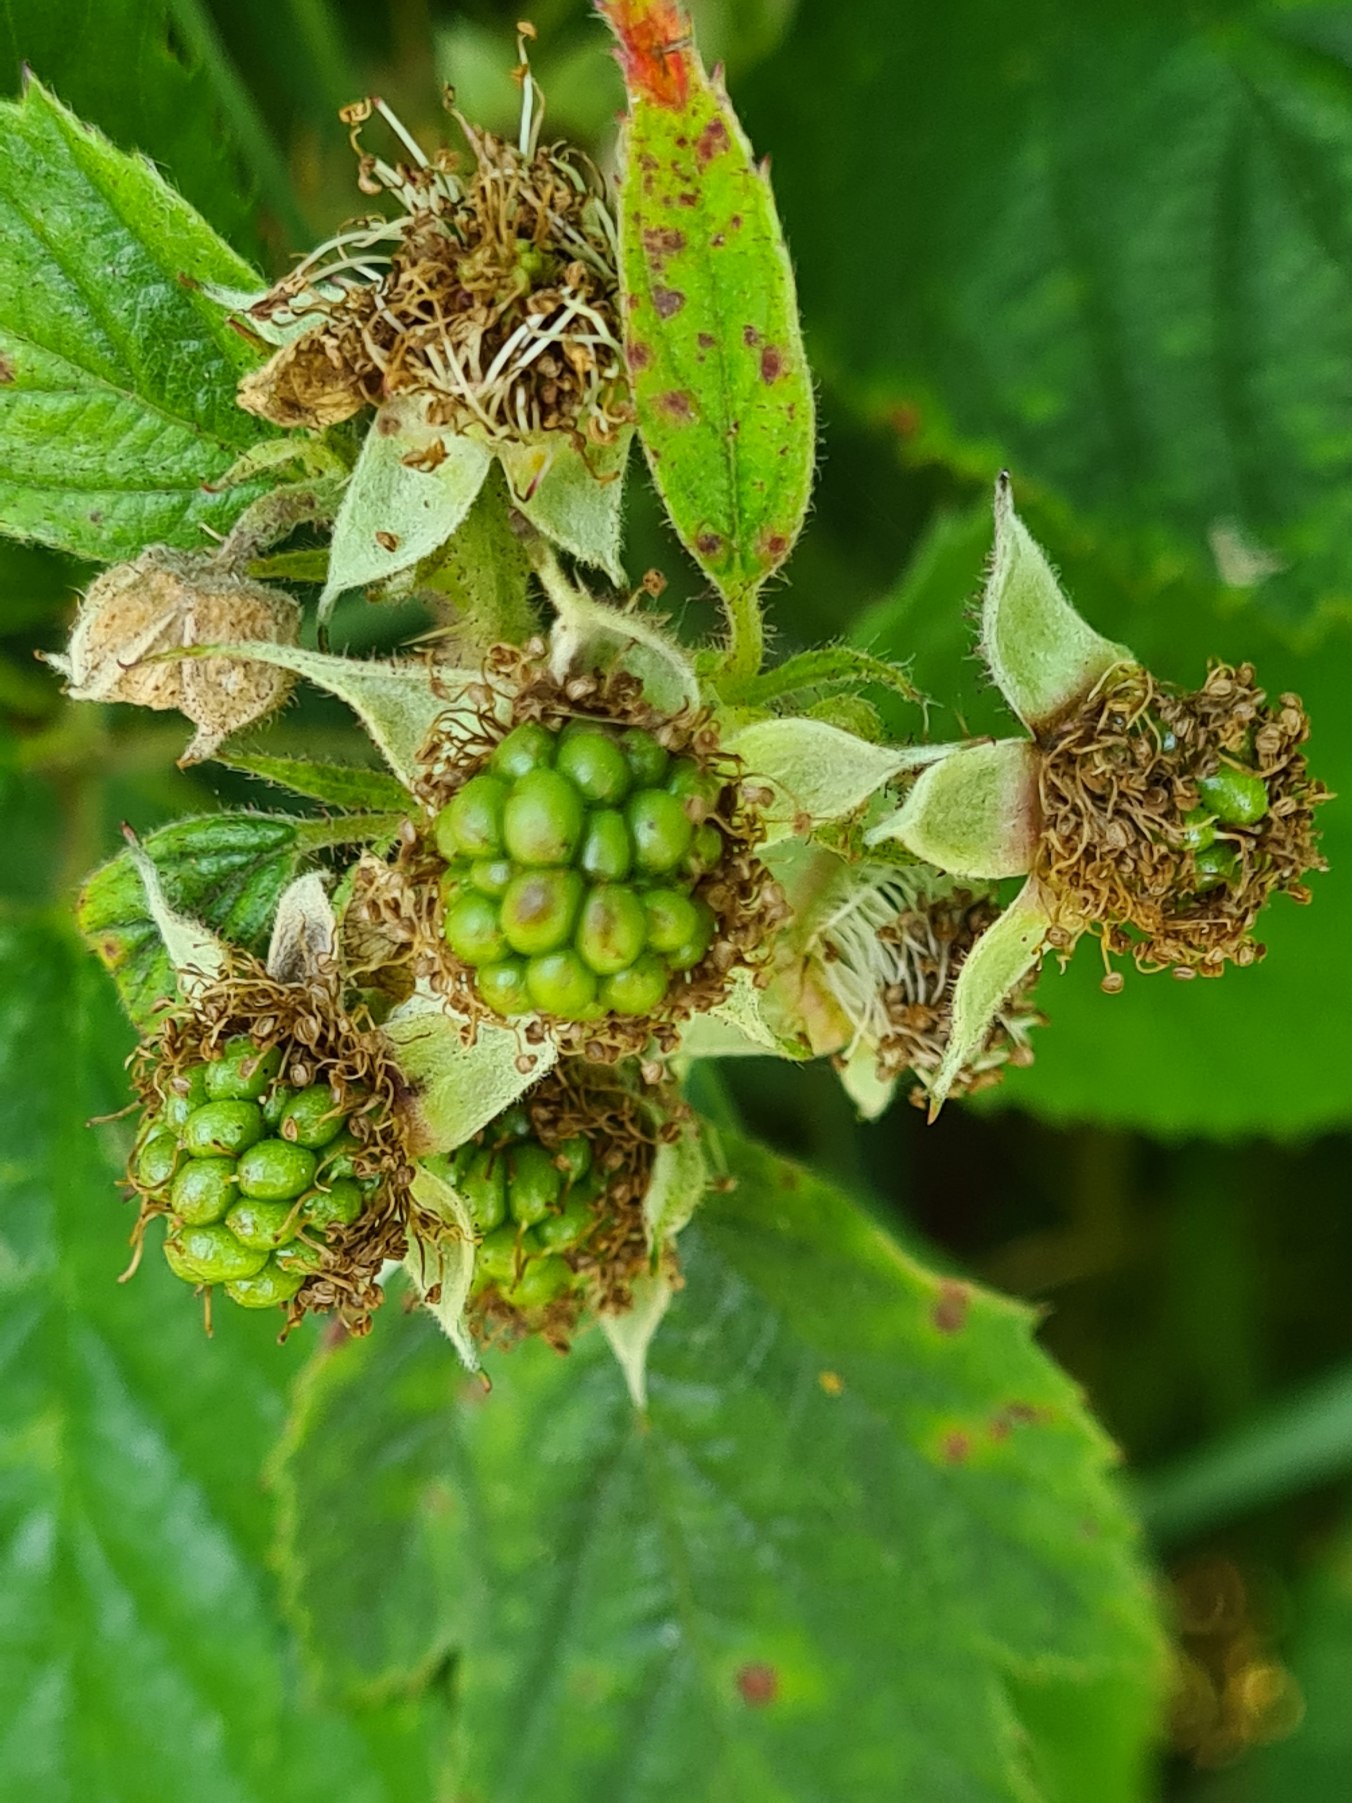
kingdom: Plantae
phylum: Tracheophyta
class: Magnoliopsida
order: Rosales
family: Rosaceae
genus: Rubus
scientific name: Rubus radula
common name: Rasperu brombær
